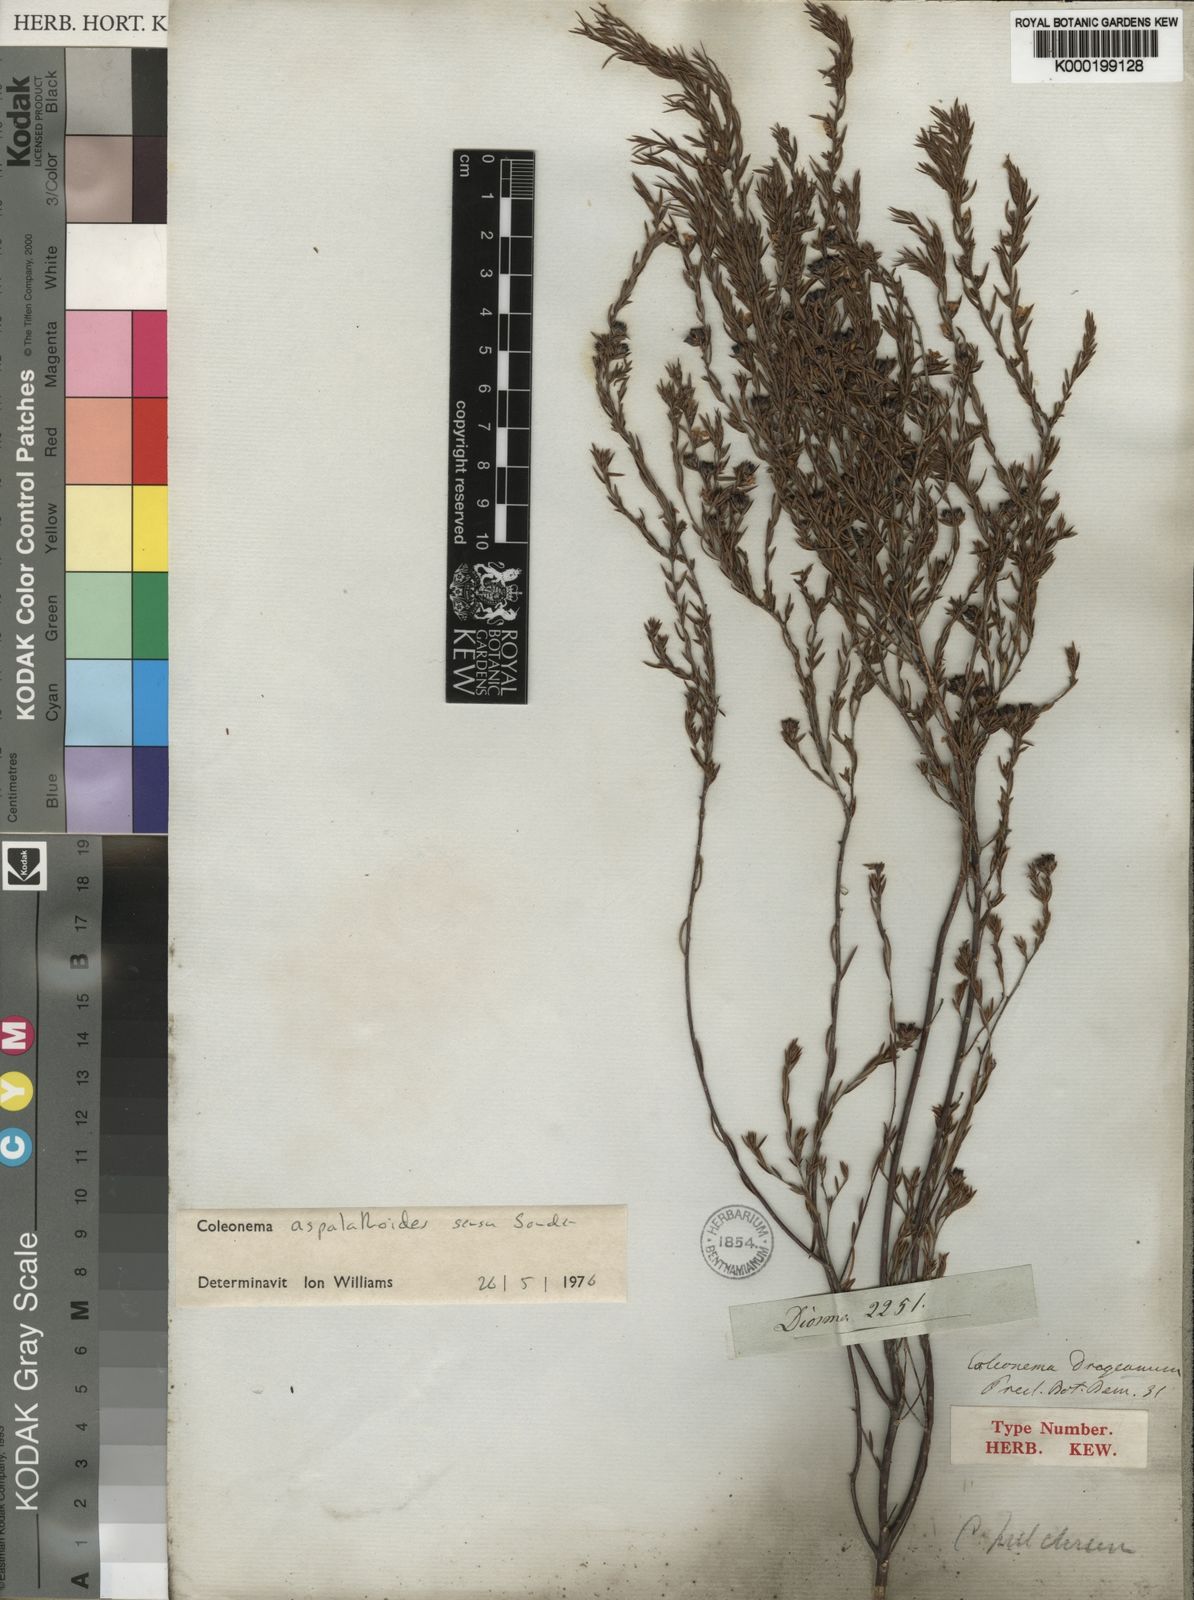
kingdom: Plantae
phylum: Tracheophyta
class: Magnoliopsida
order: Sapindales
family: Rutaceae
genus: Coleonema
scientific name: Coleonema aspalathoides
